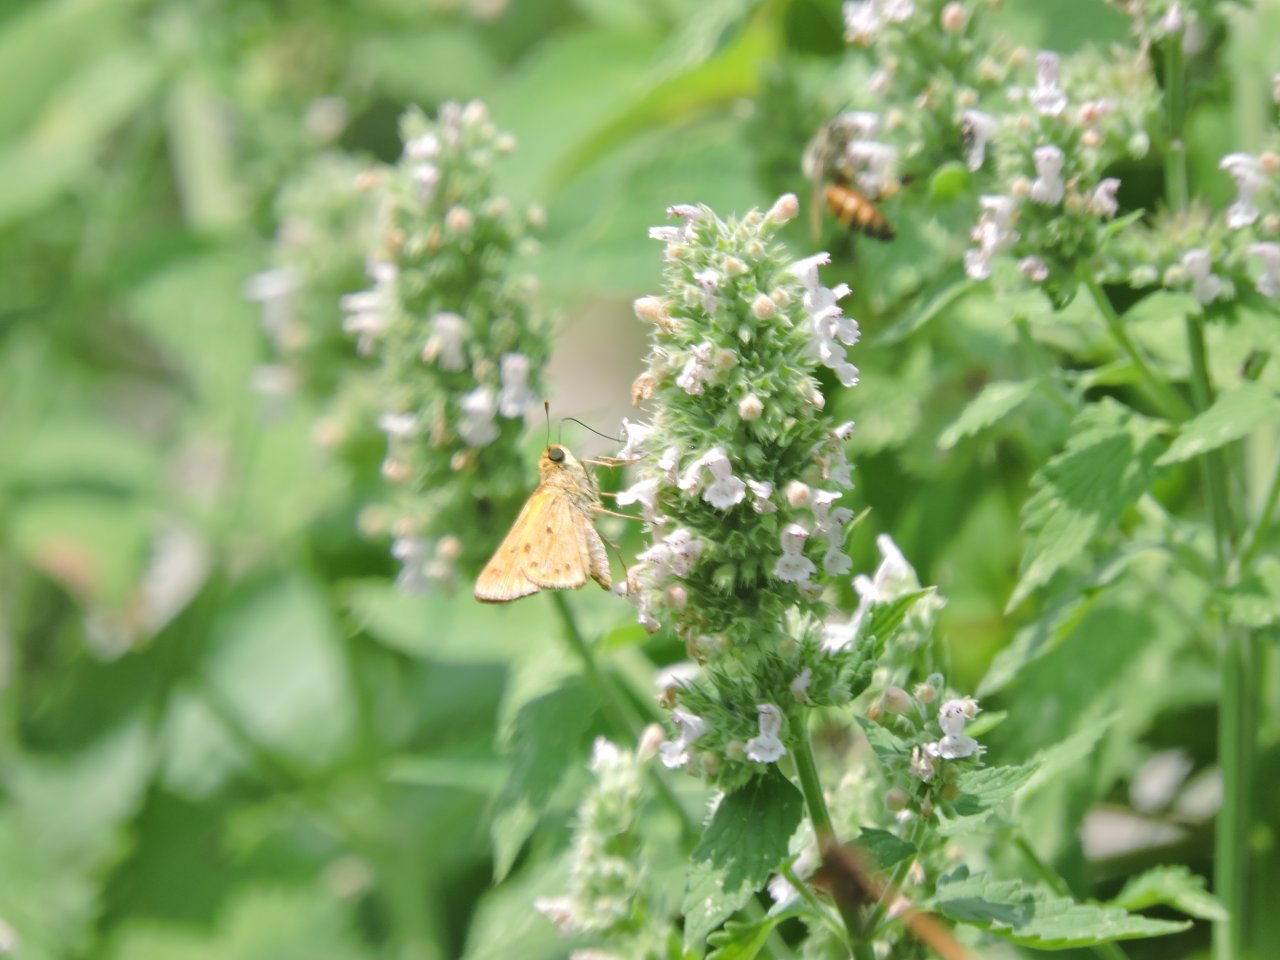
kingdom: Animalia
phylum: Arthropoda
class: Insecta
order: Lepidoptera
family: Hesperiidae
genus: Hylephila
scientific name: Hylephila phyleus
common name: Fiery Skipper
